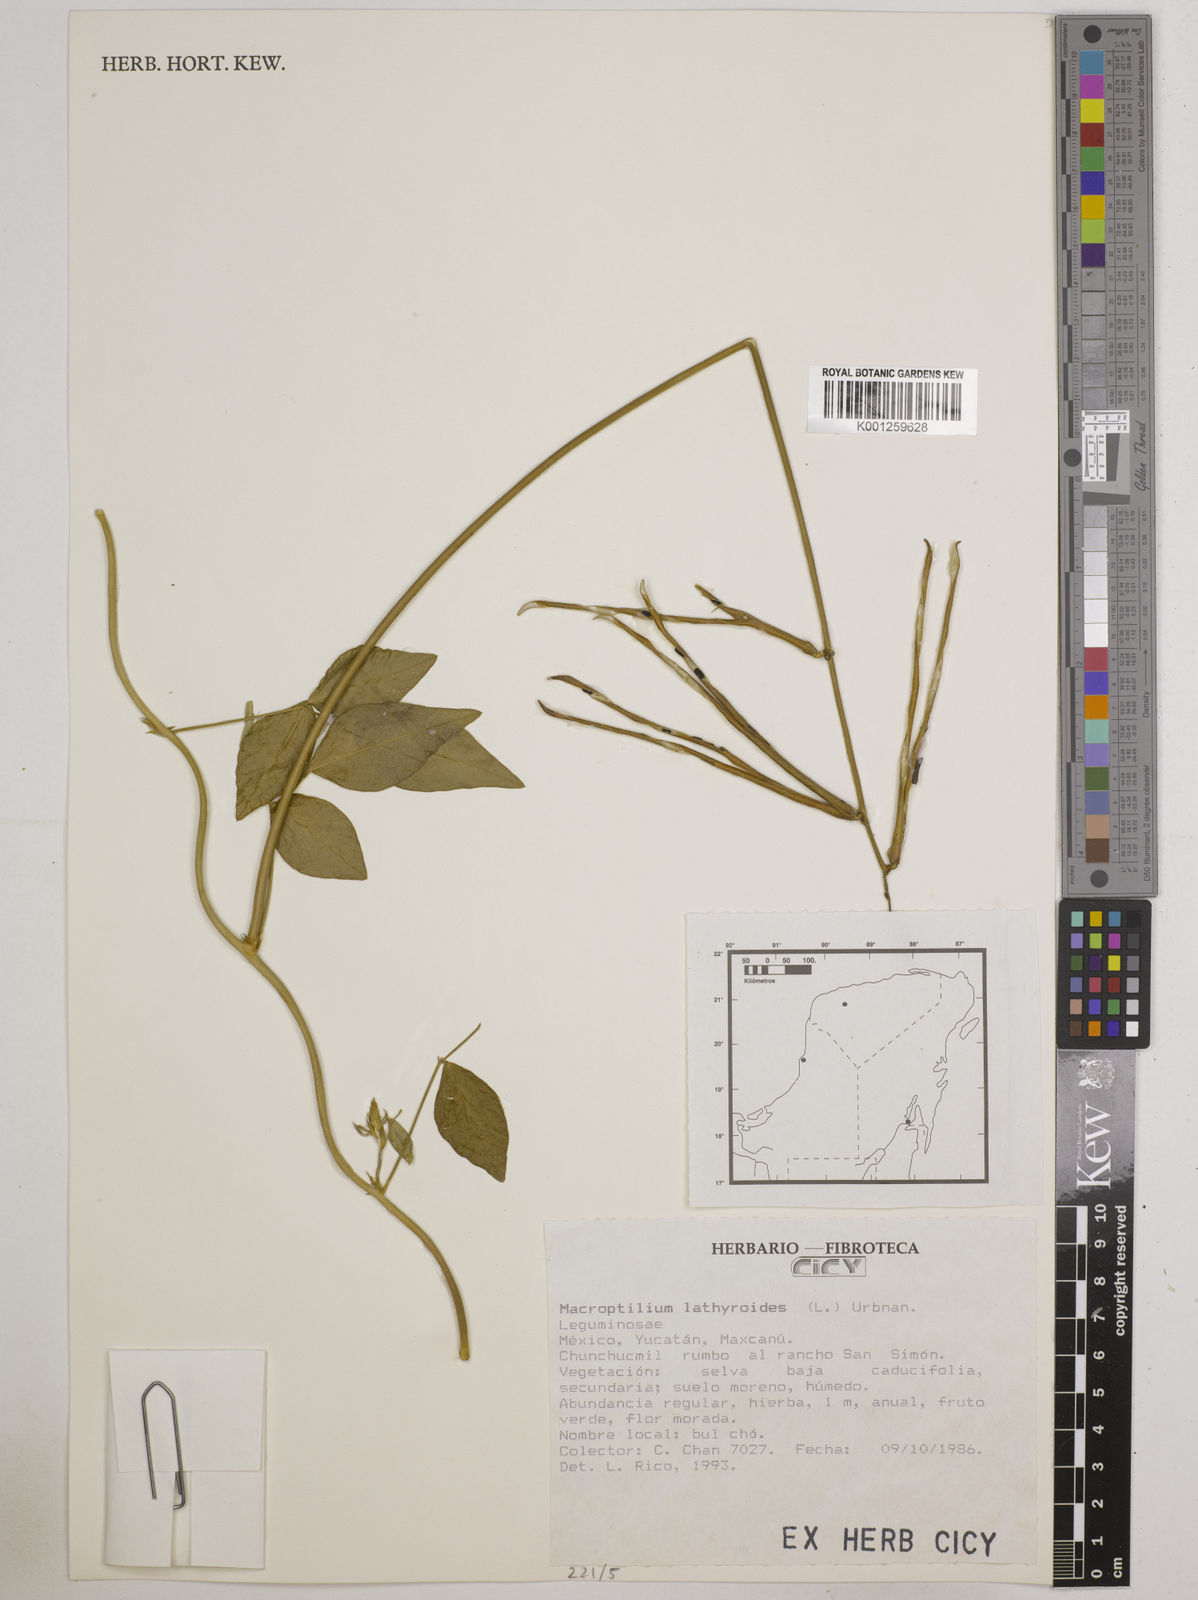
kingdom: Plantae
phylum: Tracheophyta
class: Magnoliopsida
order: Fabales
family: Fabaceae
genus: Macroptilium
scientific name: Macroptilium lathyroides
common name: Wild bushbean
